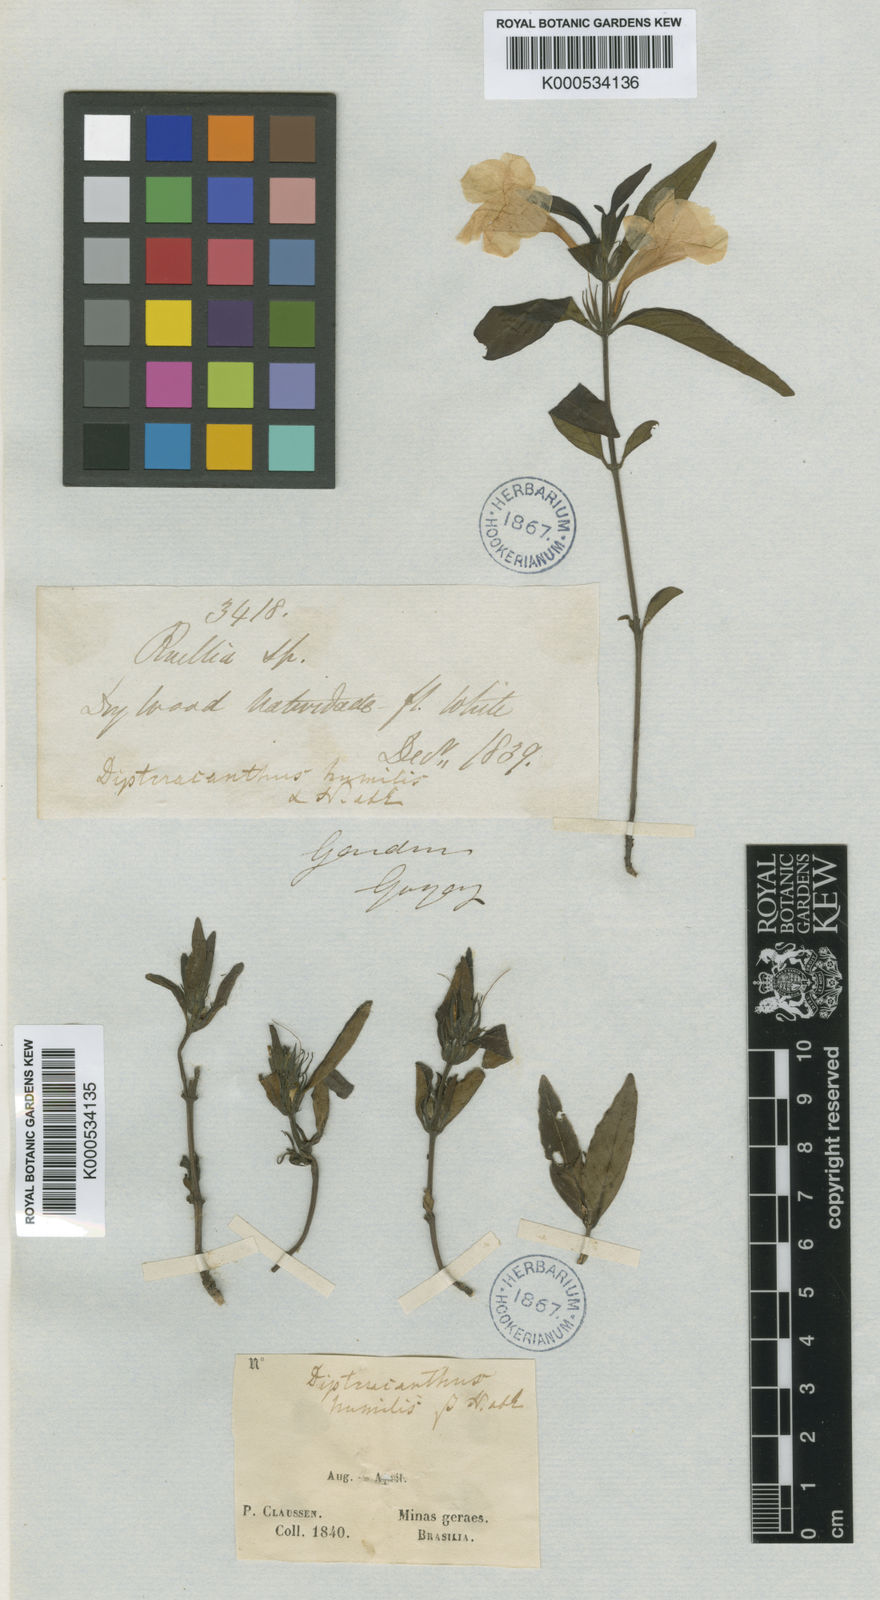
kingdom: Plantae
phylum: Tracheophyta
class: Magnoliopsida
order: Lamiales
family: Acanthaceae
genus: Ruellia
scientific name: Ruellia geminiflora
